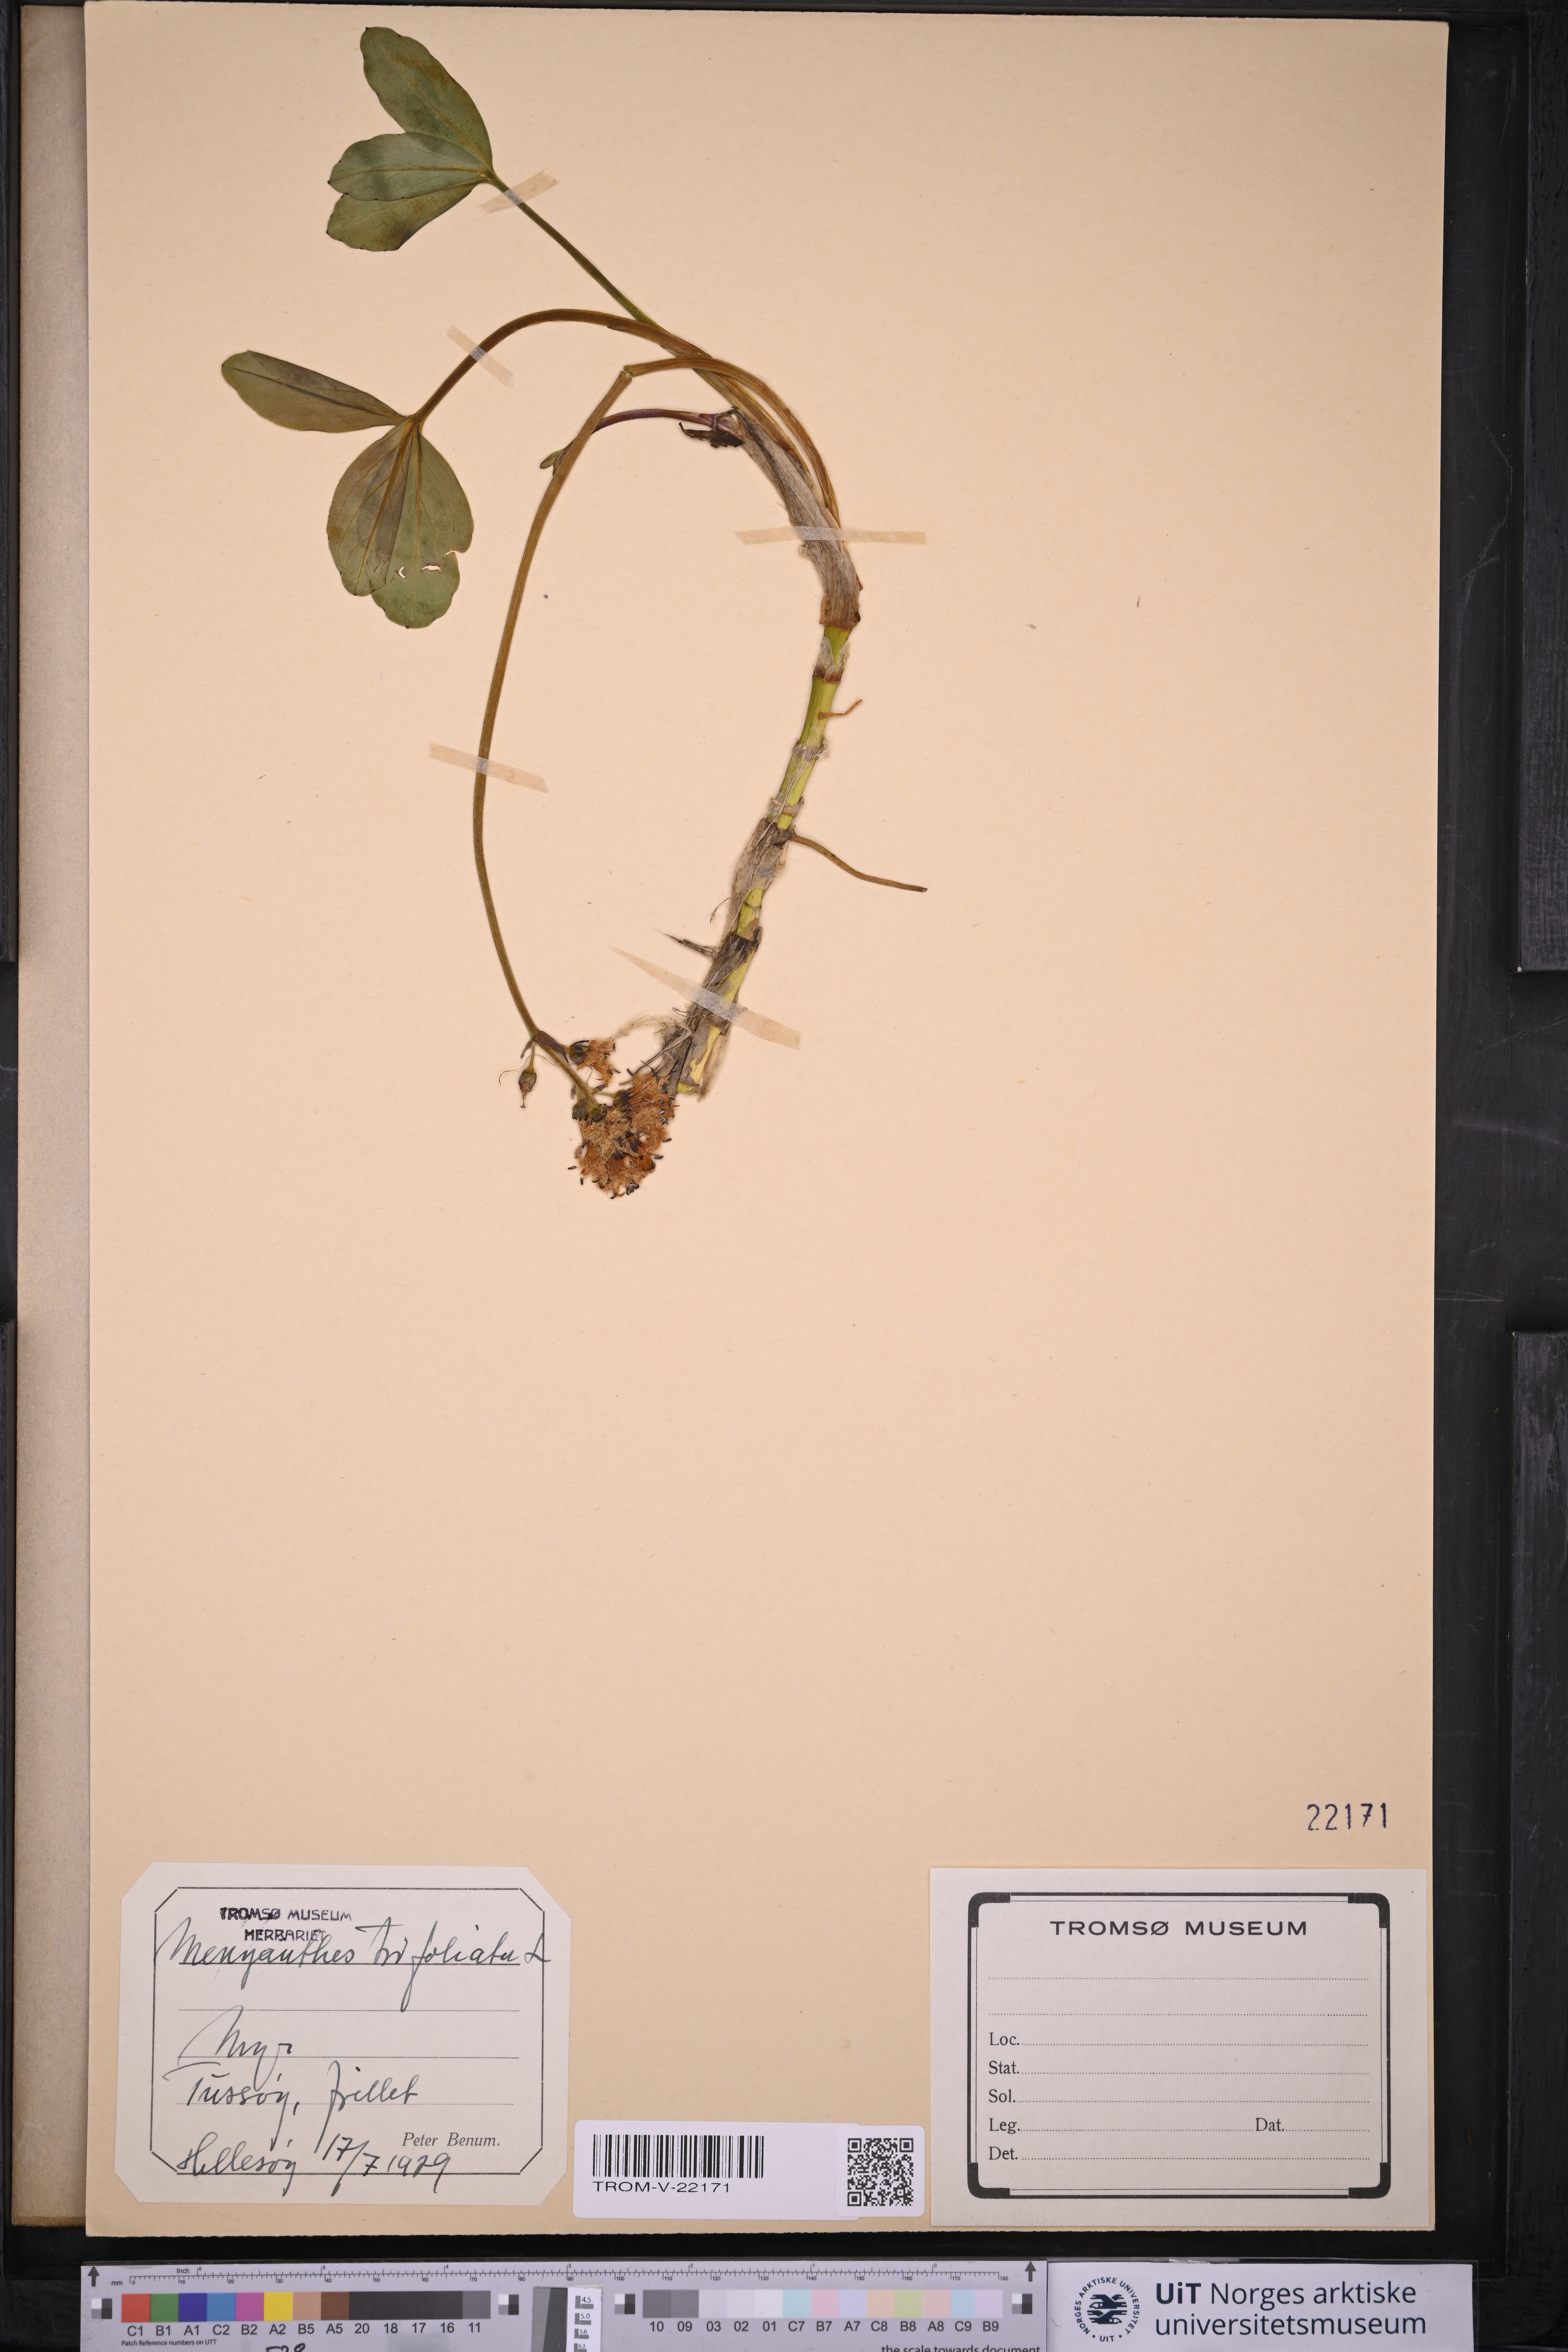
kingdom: Plantae
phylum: Tracheophyta
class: Magnoliopsida
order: Asterales
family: Menyanthaceae
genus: Menyanthes
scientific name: Menyanthes trifoliata
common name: Bogbean
